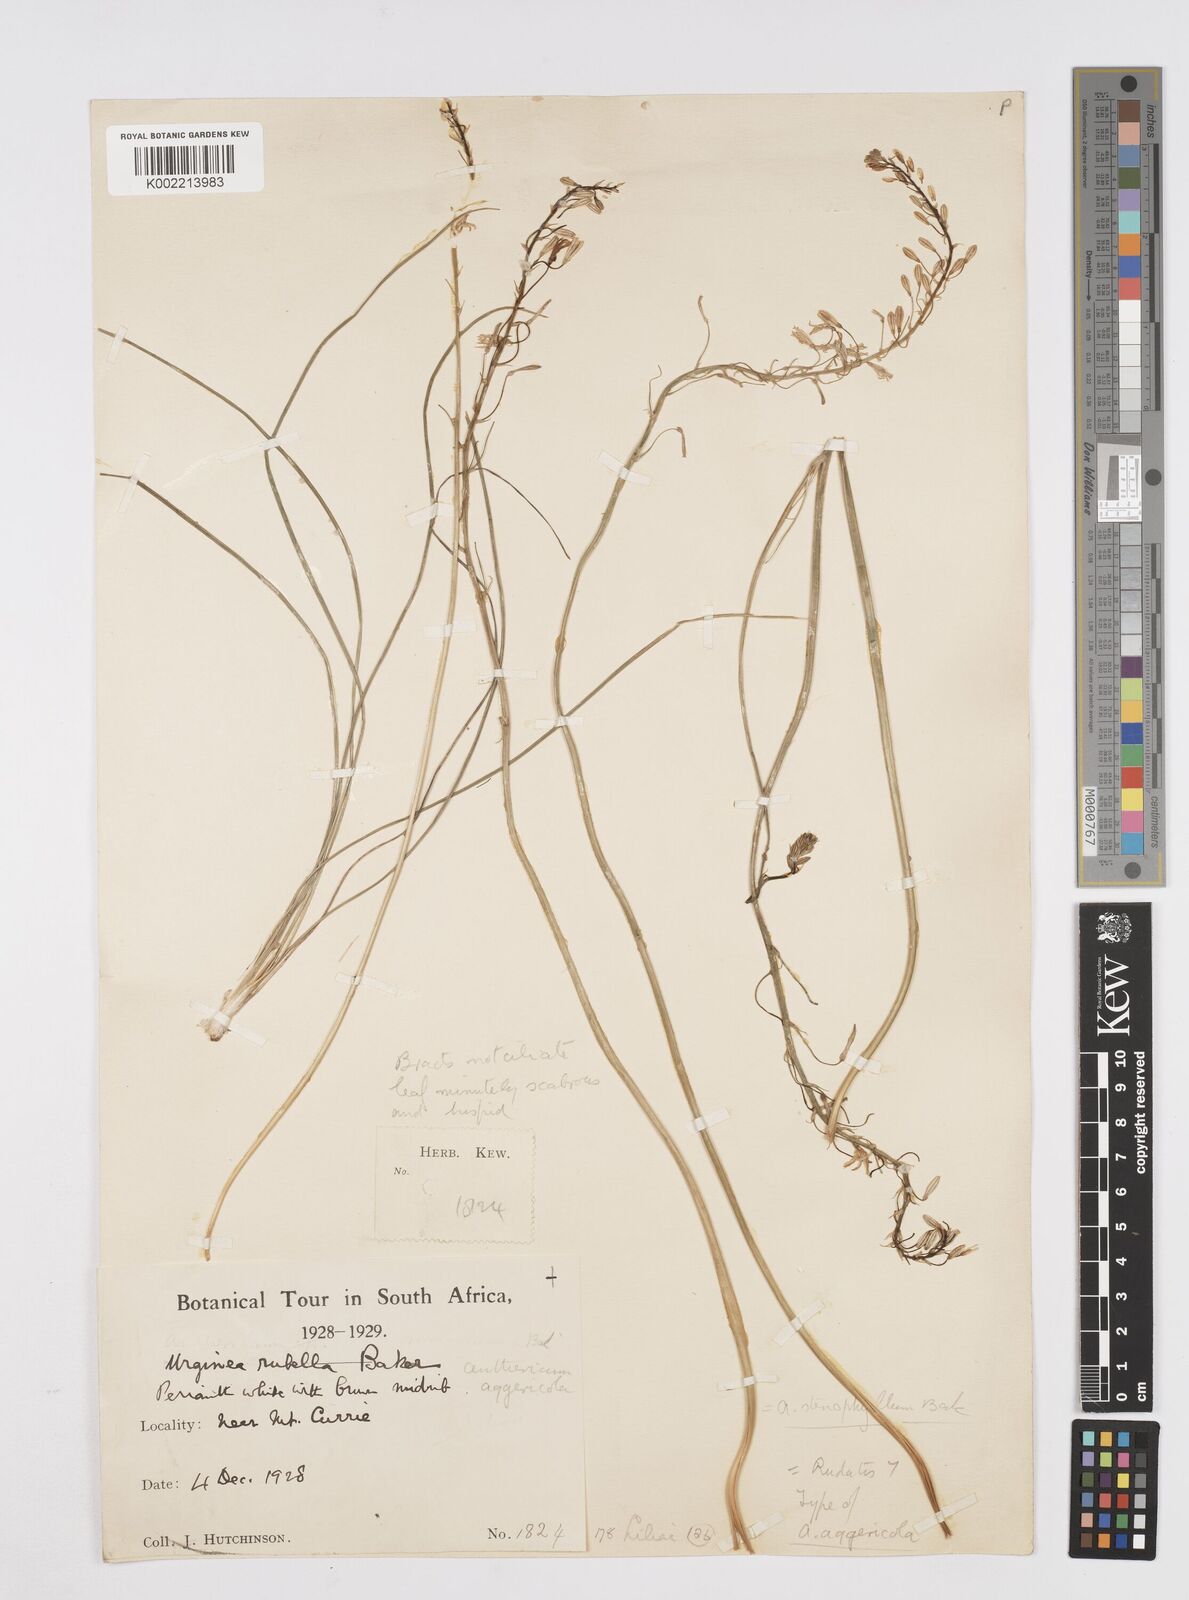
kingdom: Plantae
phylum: Tracheophyta
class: Liliopsida
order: Asparagales
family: Asphodelaceae
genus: Trachyandra
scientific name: Trachyandra
